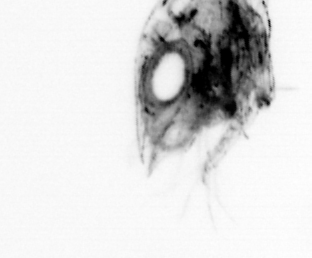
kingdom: Animalia
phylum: Arthropoda
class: Malacostraca
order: Decapoda
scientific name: Decapoda
